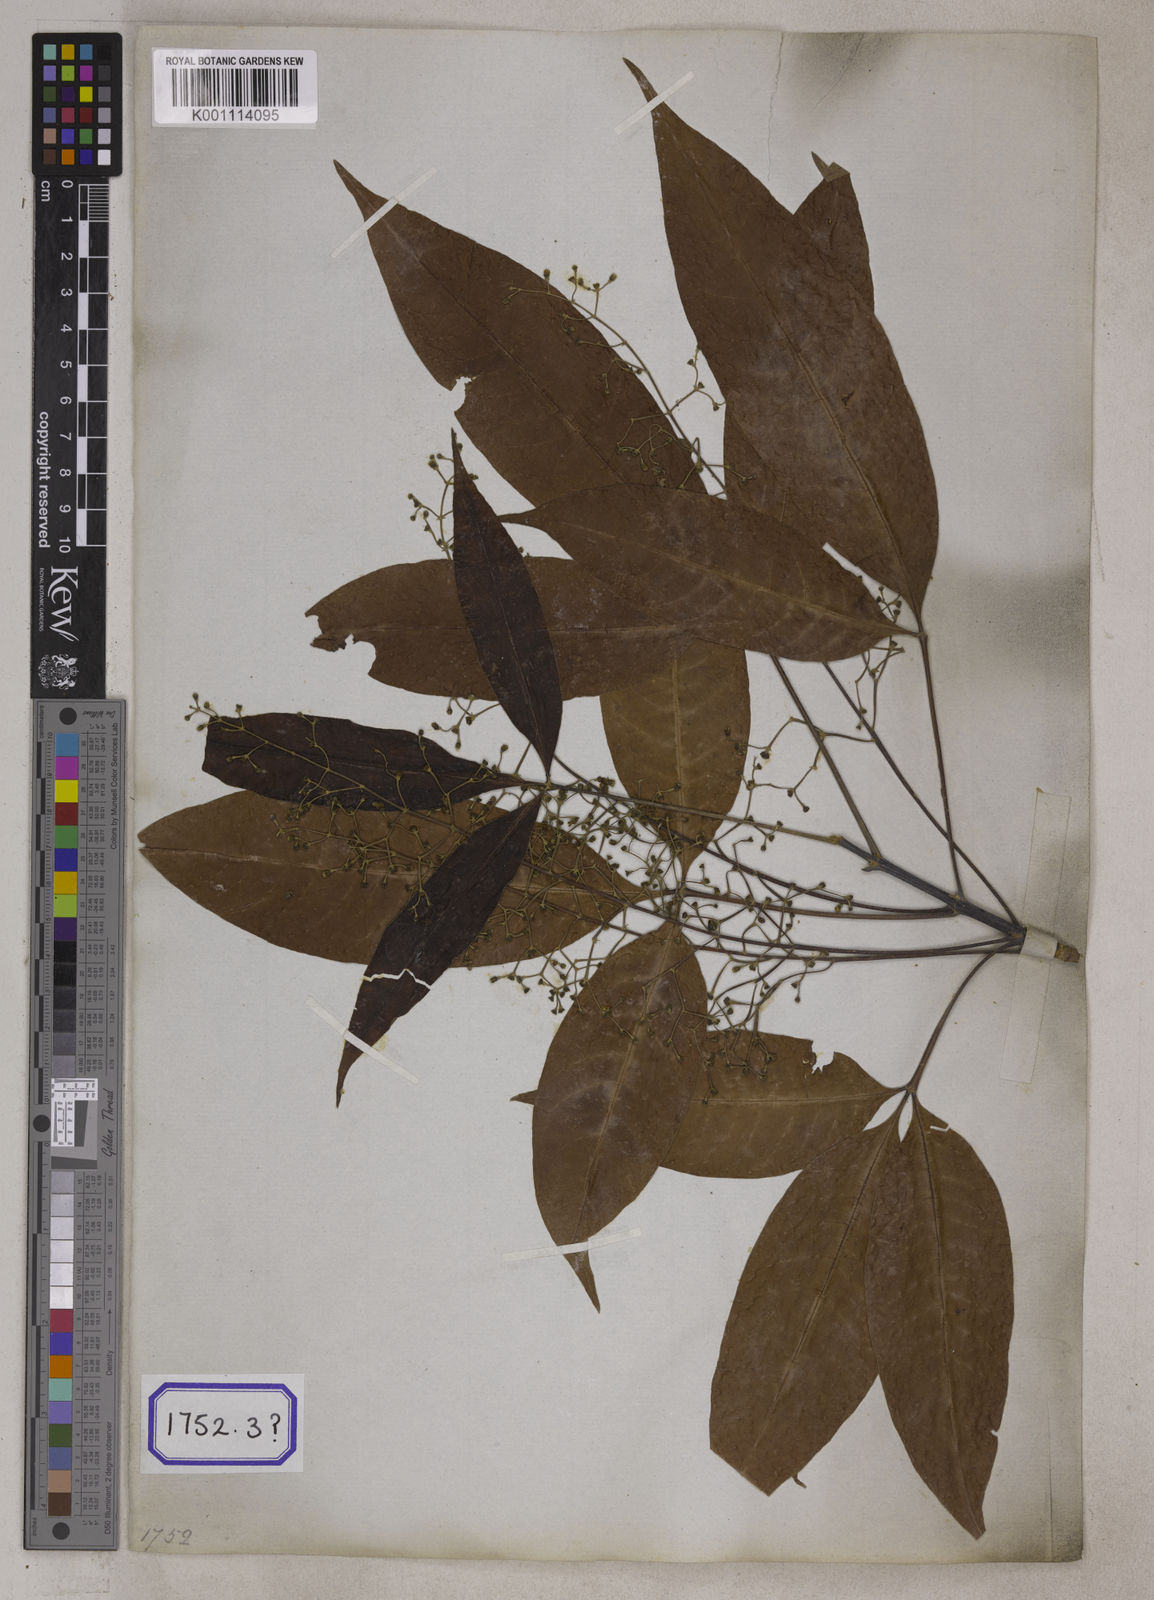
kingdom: Plantae
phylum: Tracheophyta
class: Magnoliopsida
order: Lamiales
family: Lamiaceae
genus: Vitex
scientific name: Vitex peduncularis
